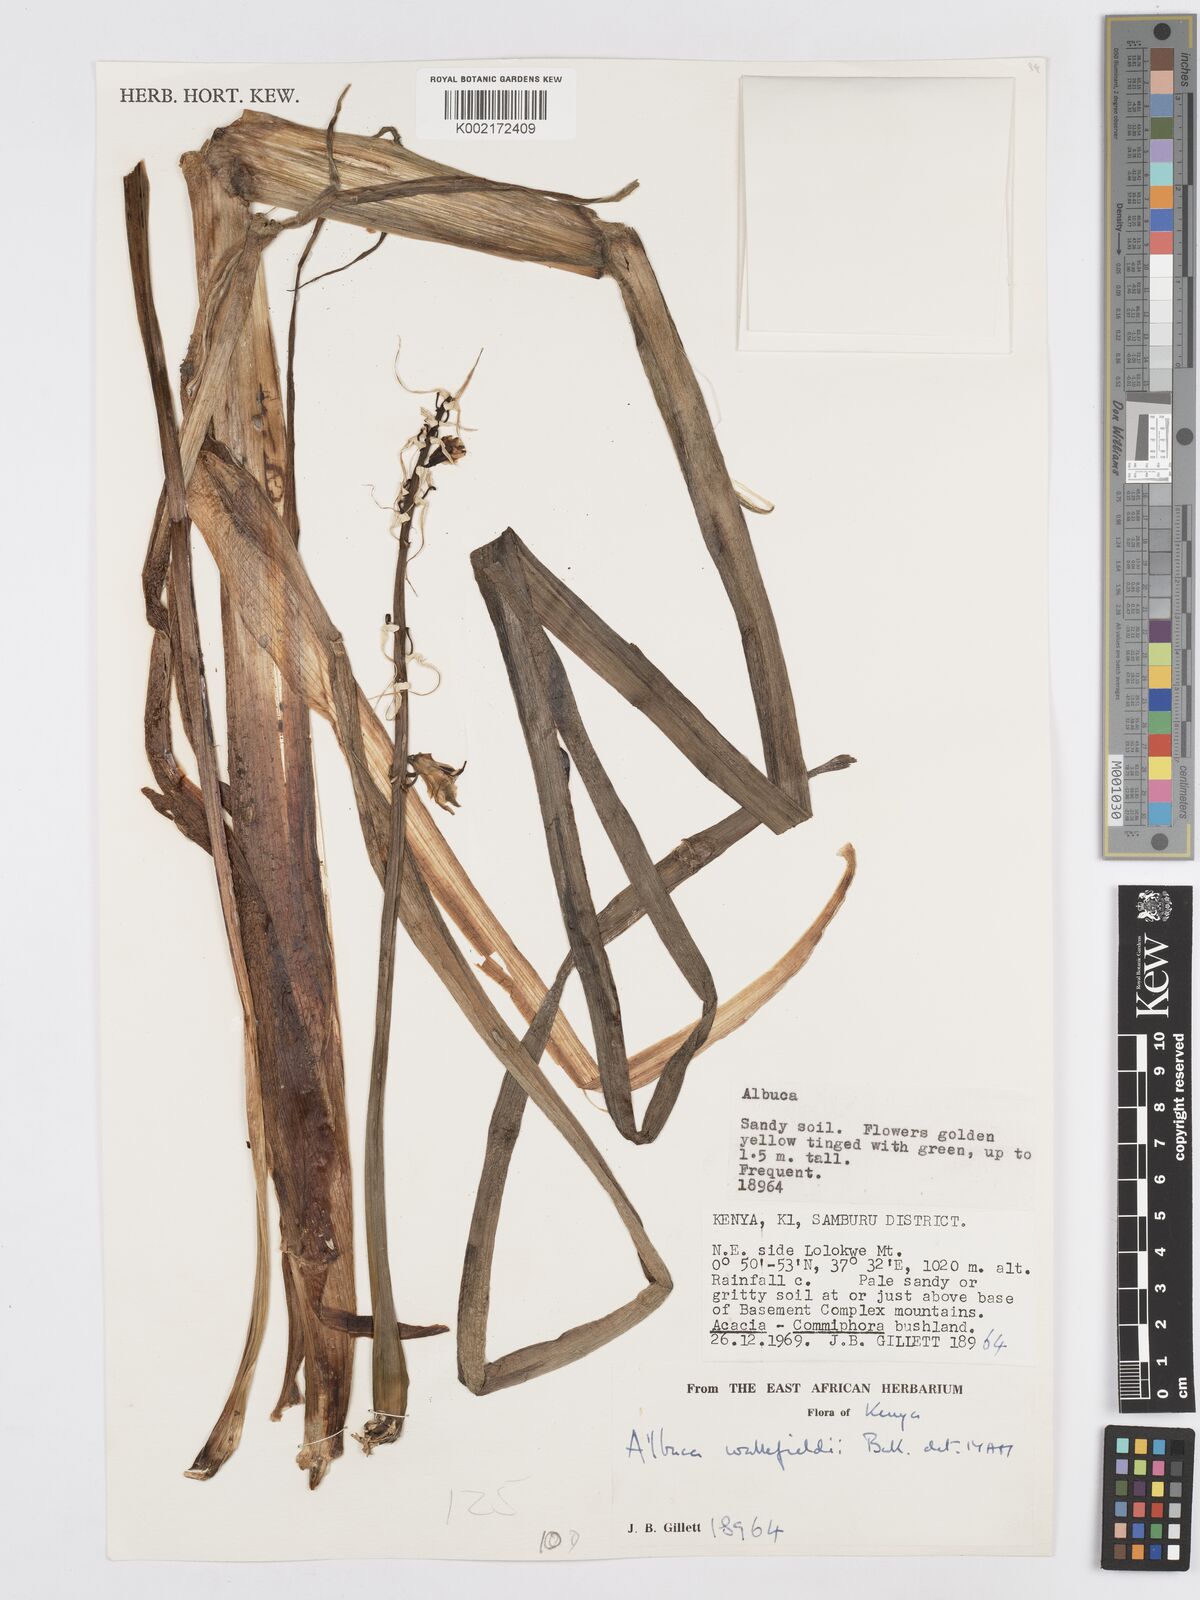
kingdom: Plantae
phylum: Tracheophyta
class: Liliopsida
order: Asparagales
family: Asparagaceae
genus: Albuca
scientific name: Albuca abyssinica
